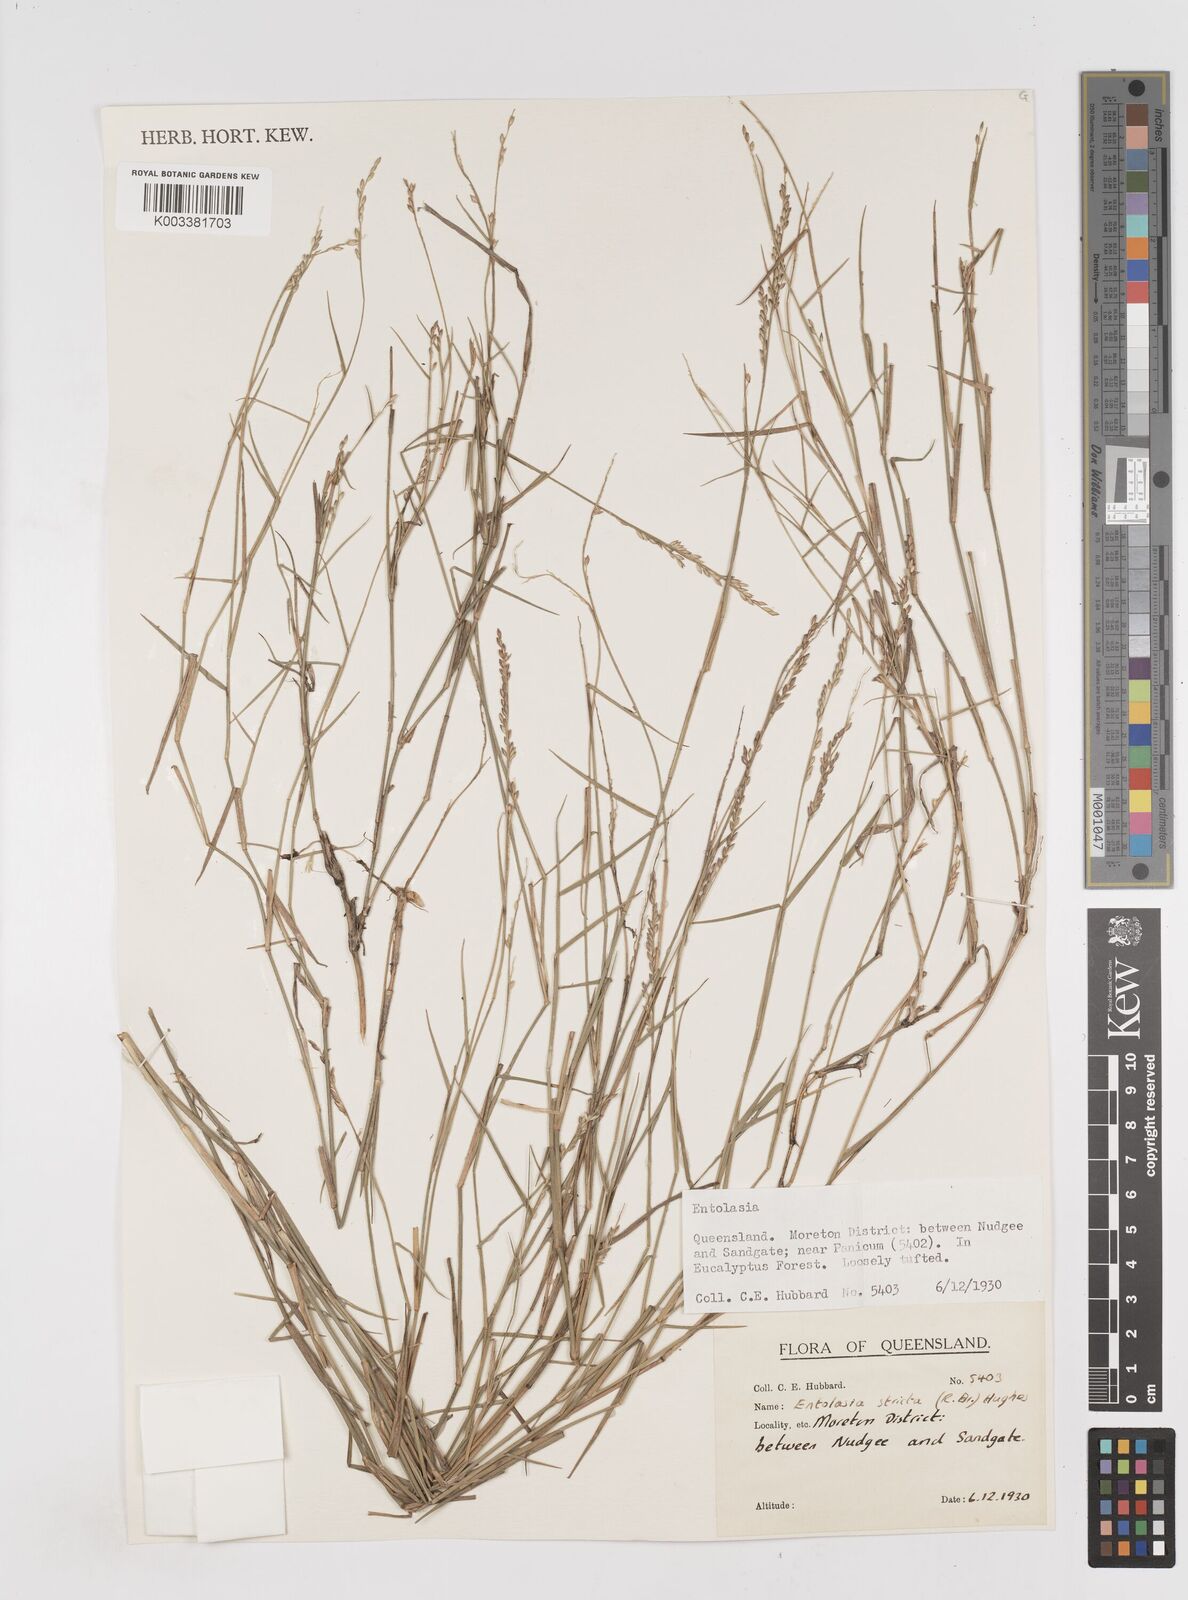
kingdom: Plantae
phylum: Tracheophyta
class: Liliopsida
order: Poales
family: Poaceae
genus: Entolasia
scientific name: Entolasia stricta
